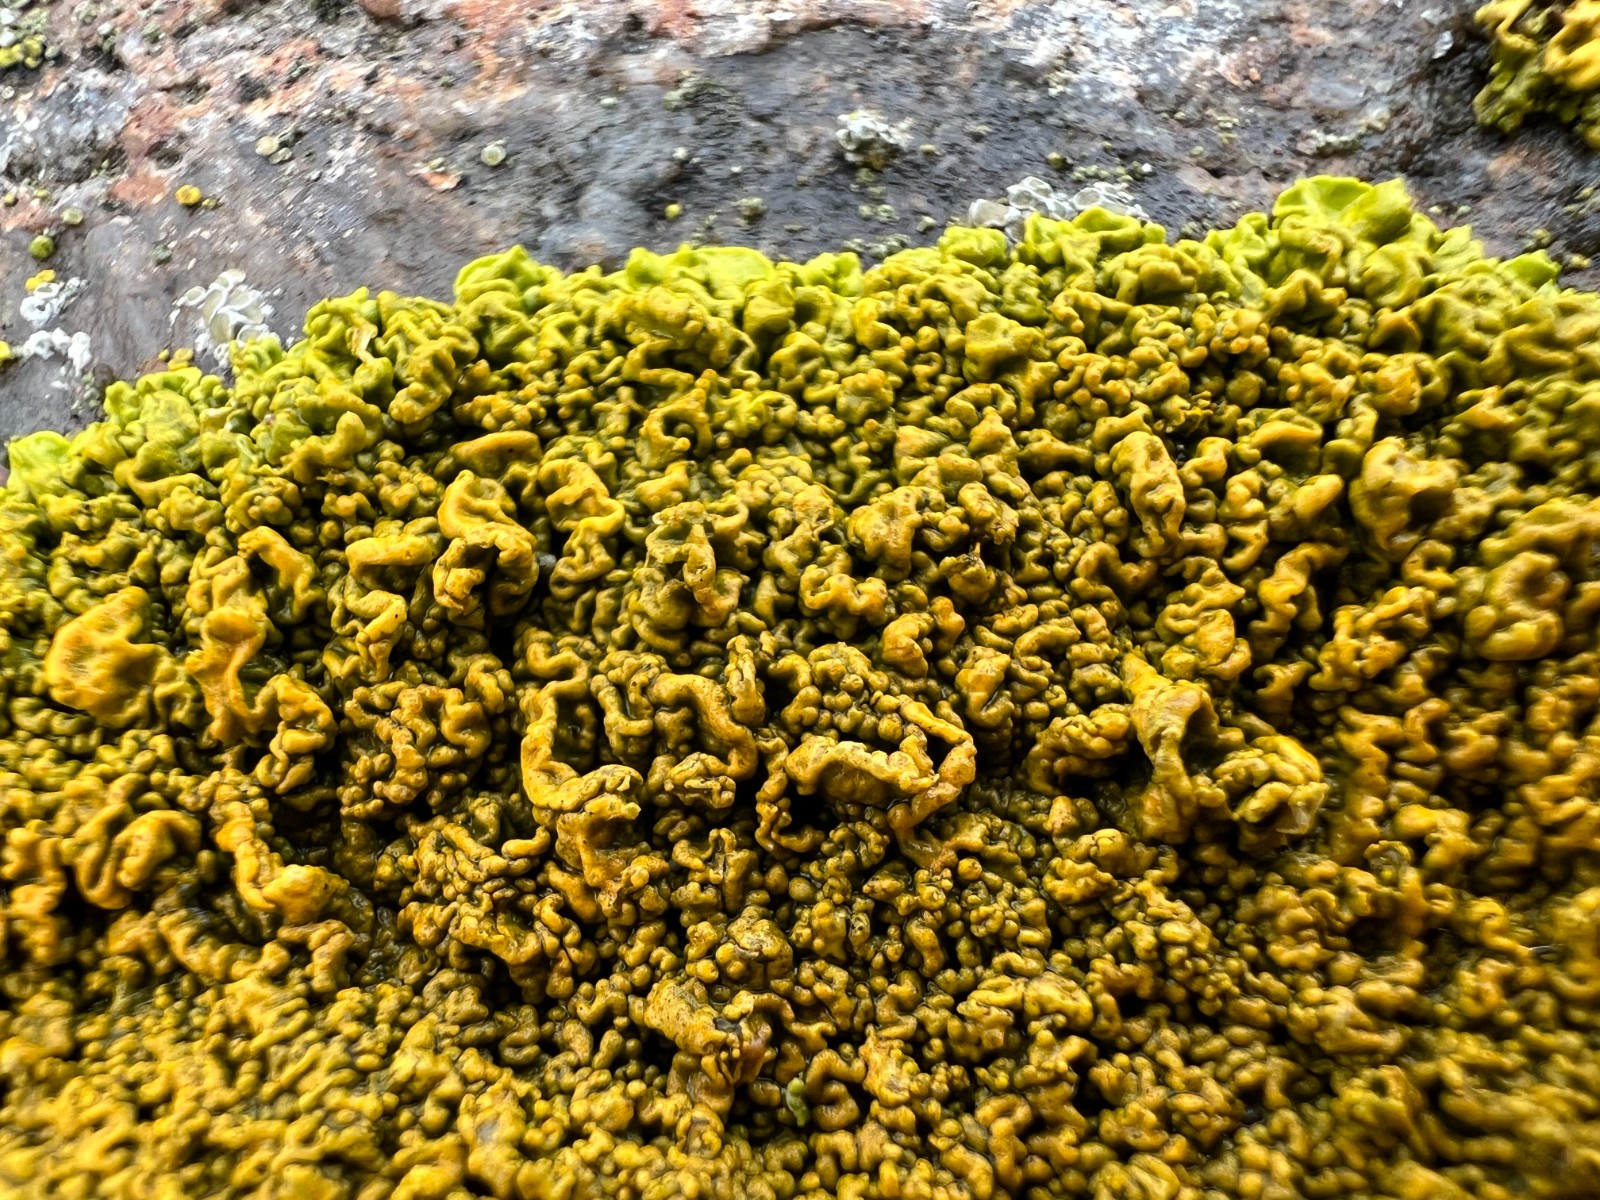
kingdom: Fungi
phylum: Ascomycota
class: Lecanoromycetes
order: Teloschistales
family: Teloschistaceae
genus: Xanthoria
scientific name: Xanthoria calcicola
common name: vortet væggelav
